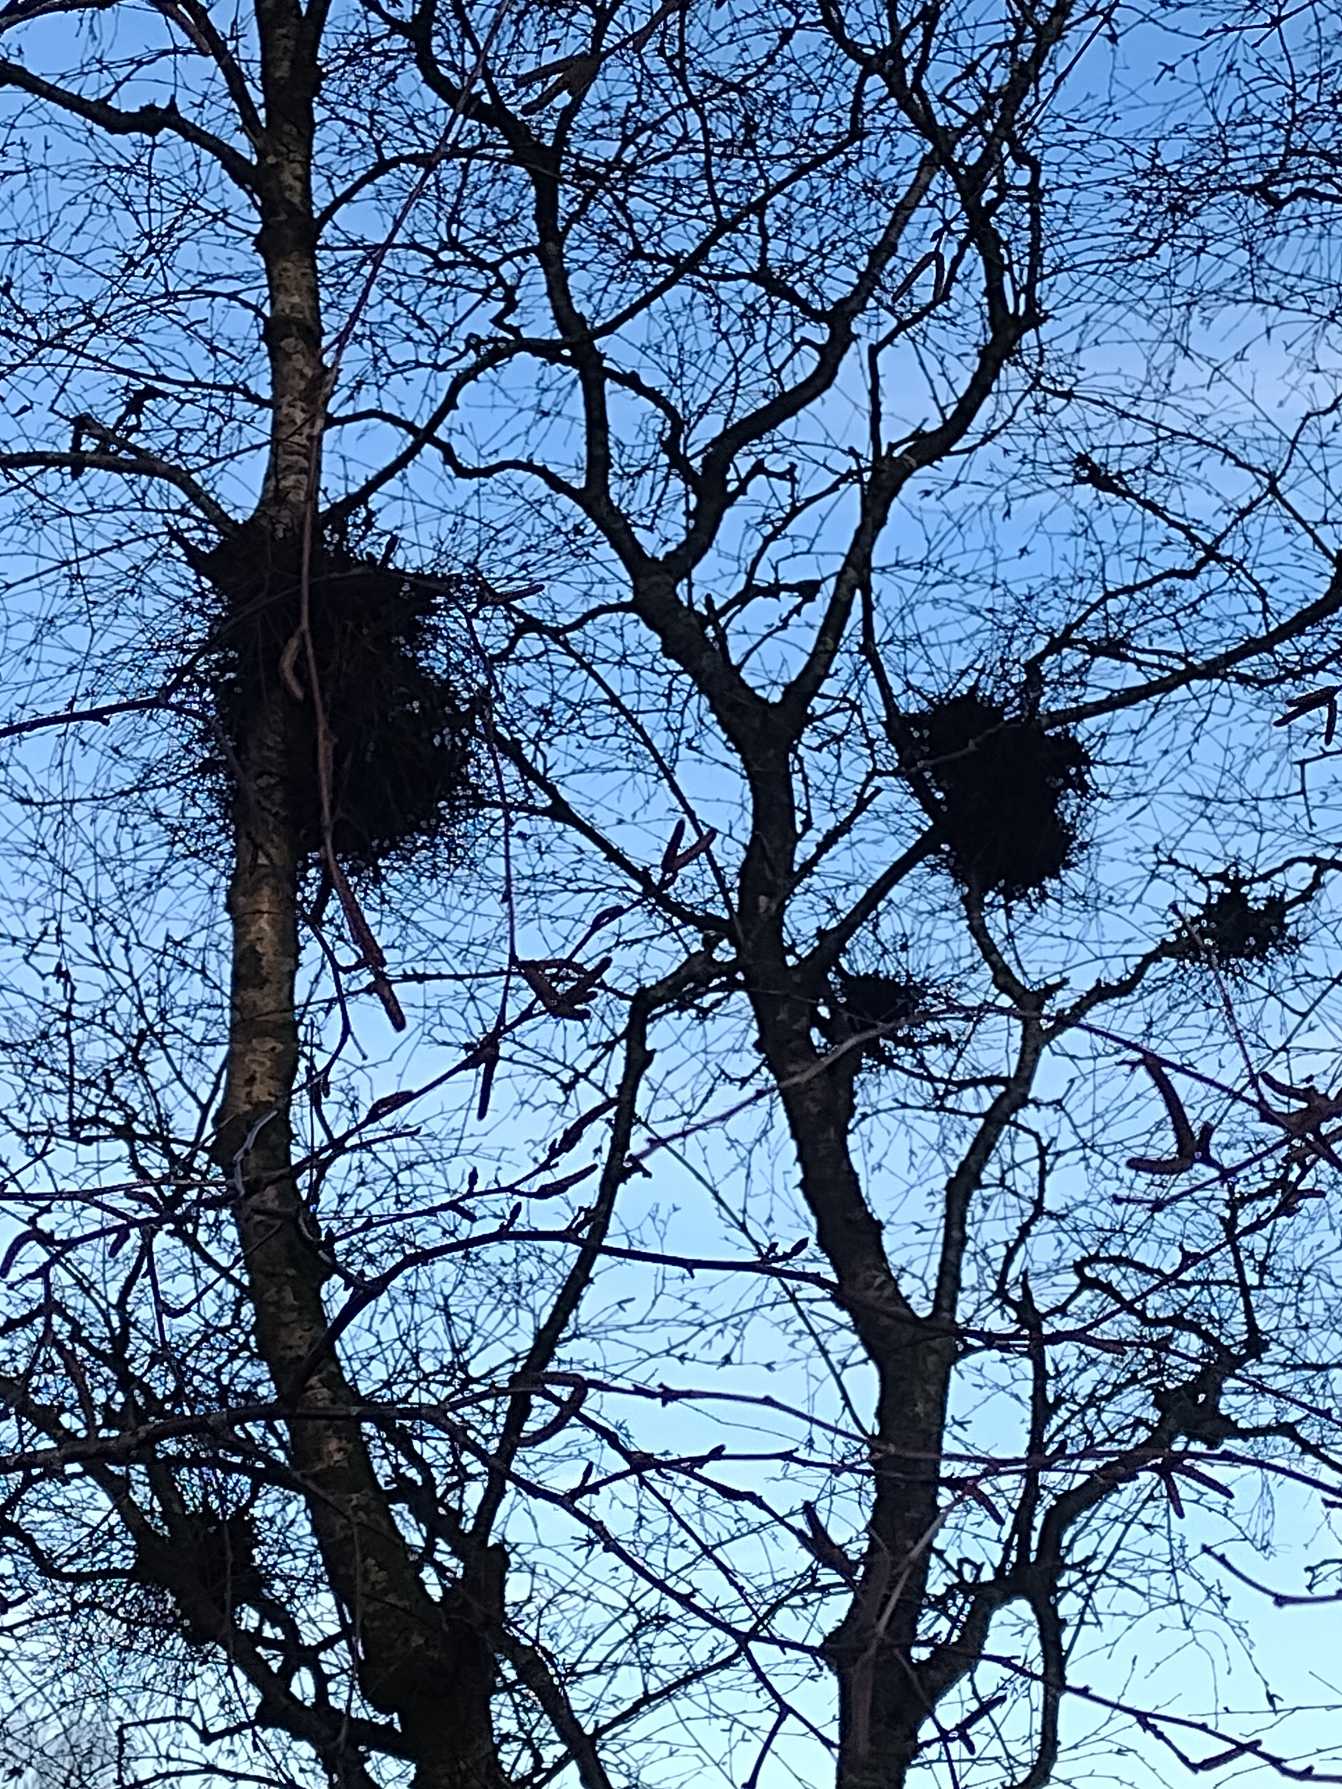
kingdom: Plantae
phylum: Tracheophyta
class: Magnoliopsida
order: Fagales
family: Betulaceae
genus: Betula
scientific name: Betula pubescens
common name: Dun-birk
